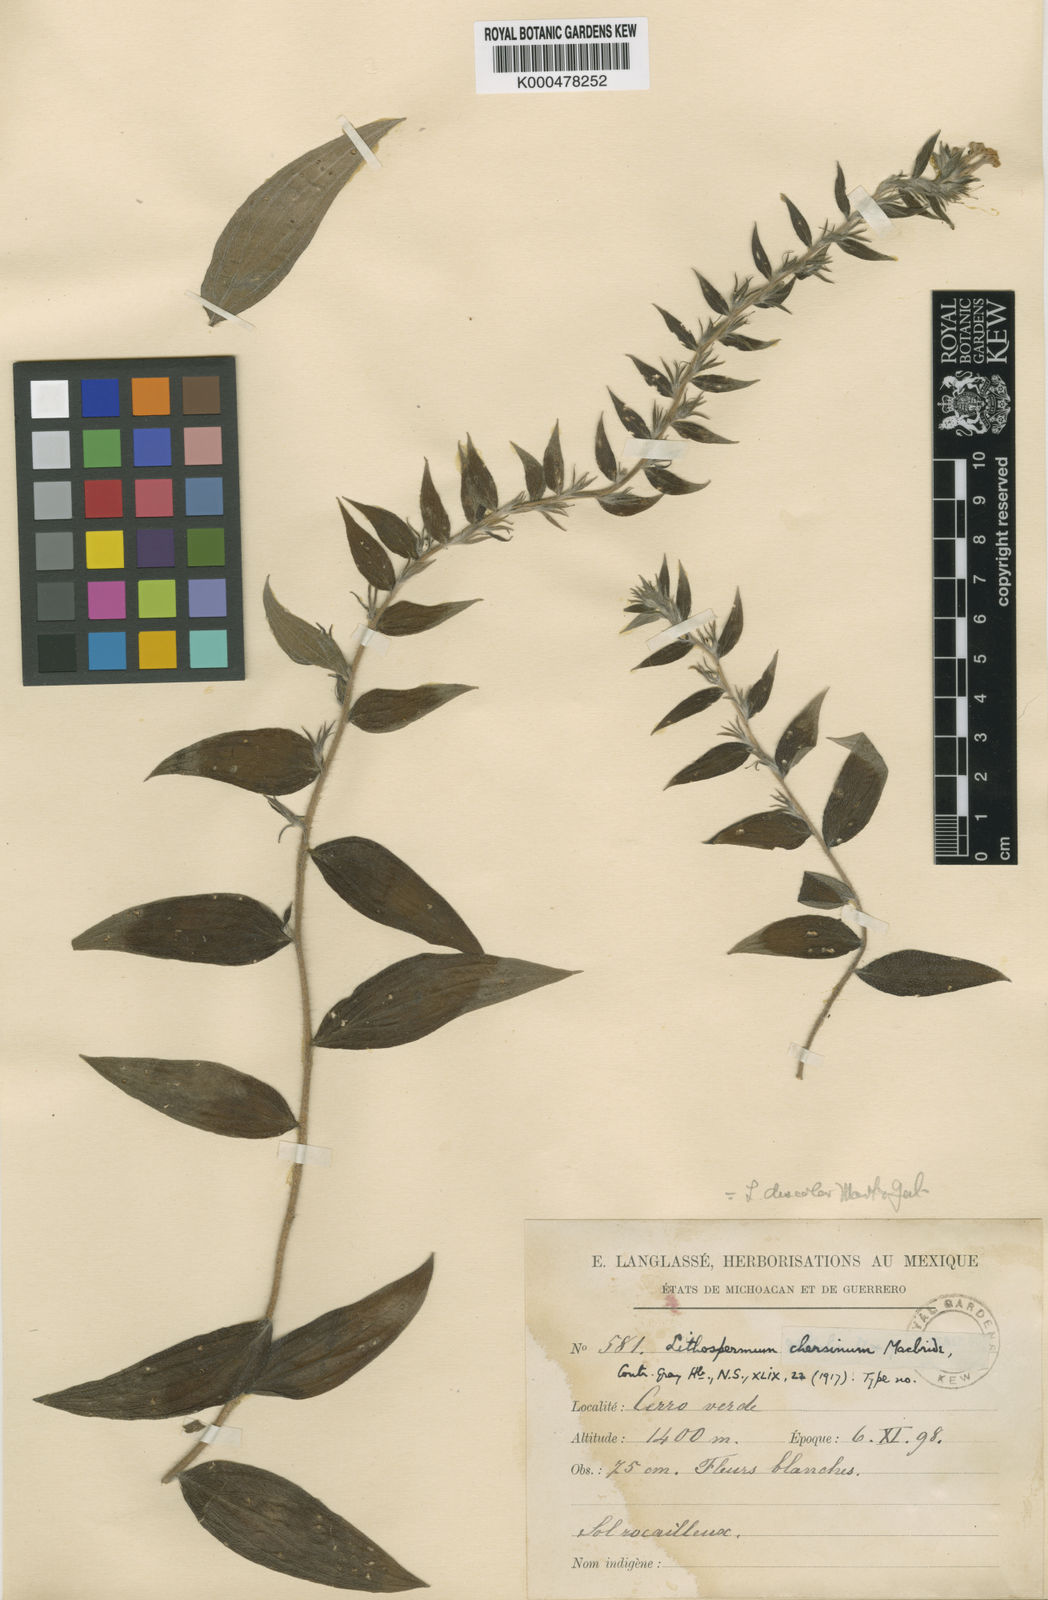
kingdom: Plantae
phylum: Tracheophyta
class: Magnoliopsida
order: Boraginales
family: Boraginaceae
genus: Lithospermum
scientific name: Lithospermum discolor
